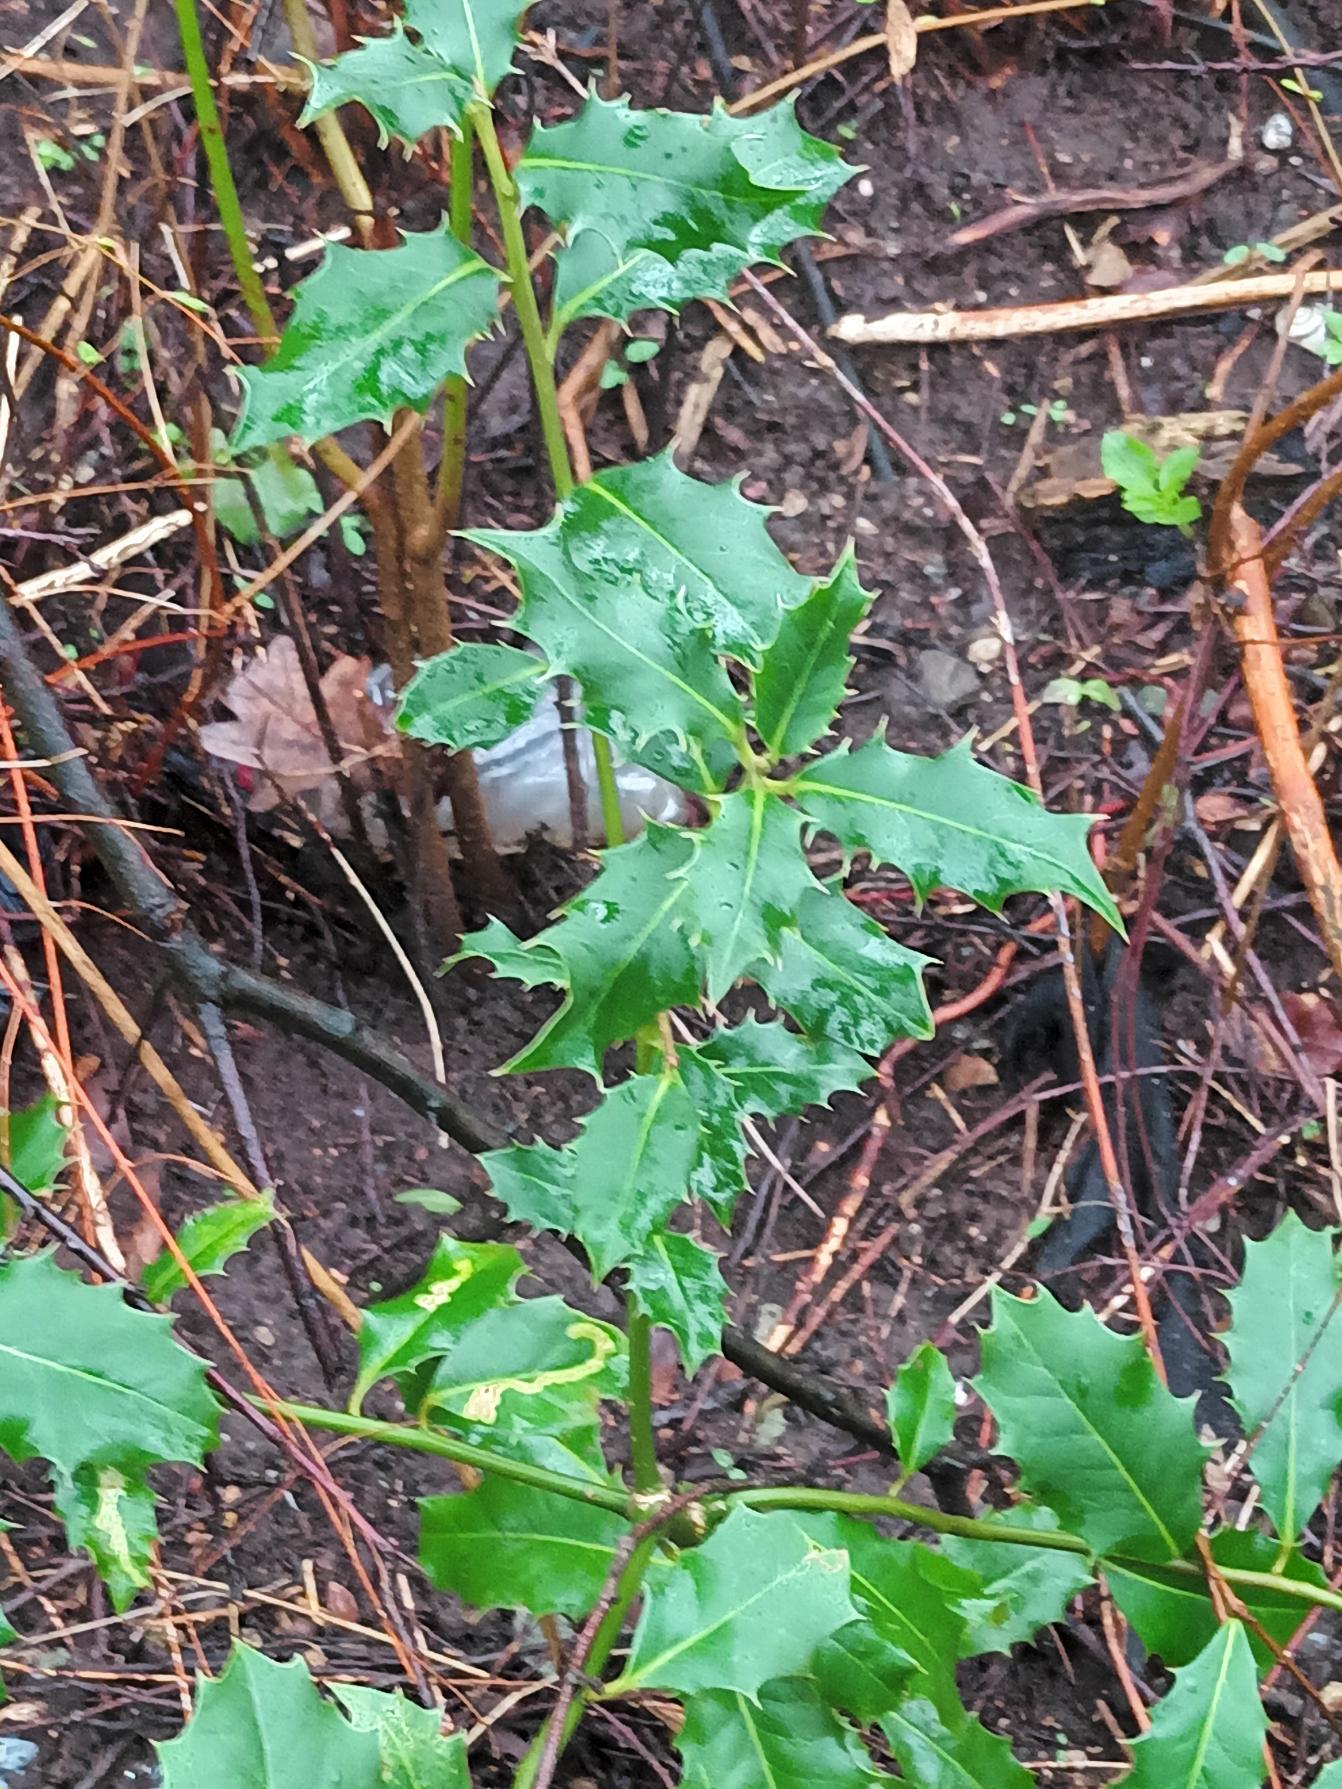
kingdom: Plantae
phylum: Tracheophyta
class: Magnoliopsida
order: Aquifoliales
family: Aquifoliaceae
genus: Ilex
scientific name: Ilex aquifolium
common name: Kristtorn
